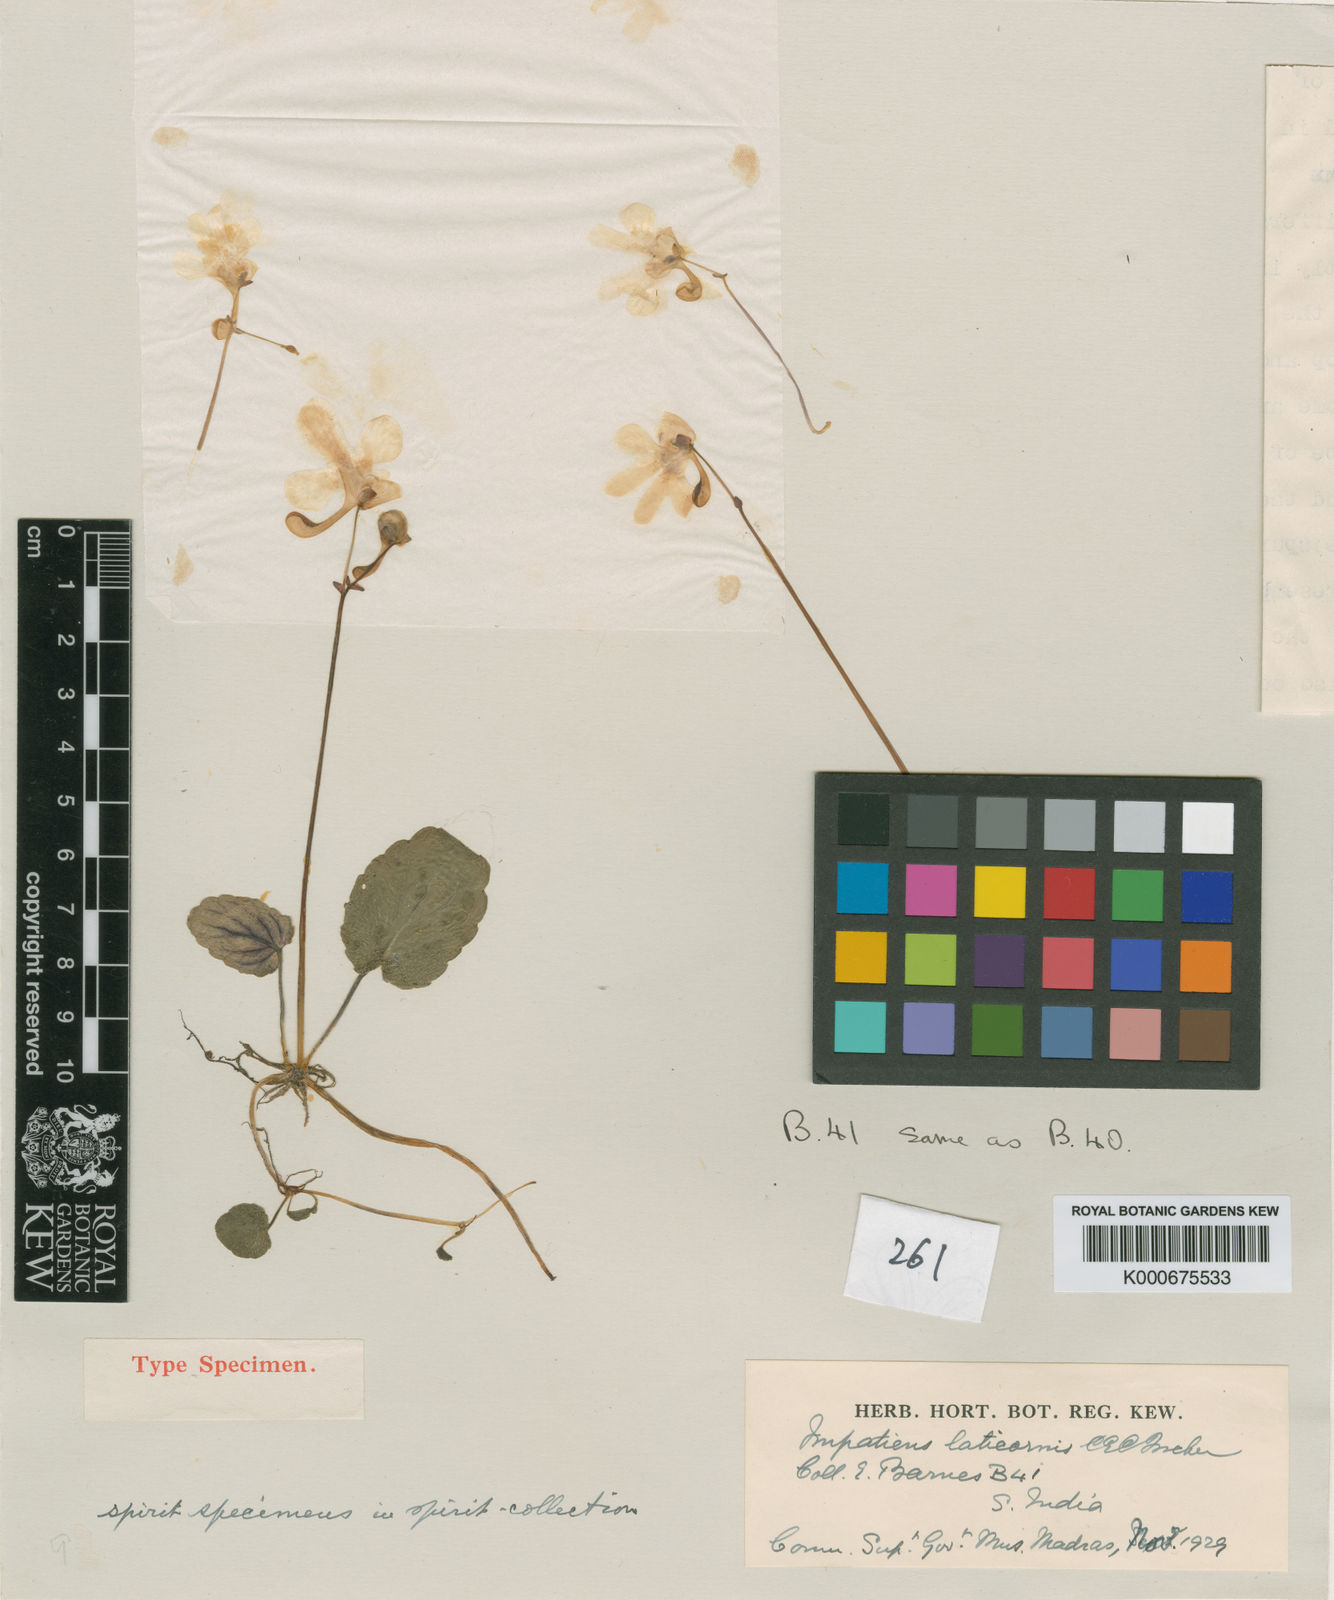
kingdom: Plantae
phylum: Tracheophyta
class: Magnoliopsida
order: Ericales
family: Balsaminaceae
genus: Impatiens
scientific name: Impatiens laticornis
